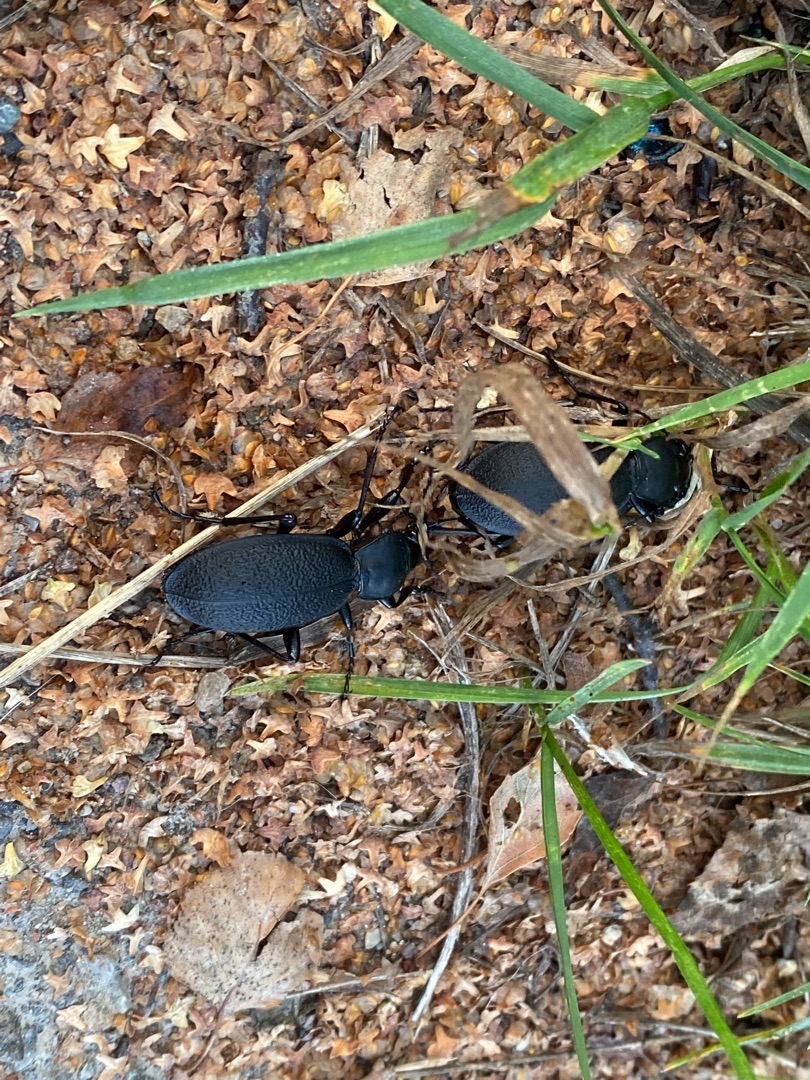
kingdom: Animalia
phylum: Arthropoda
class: Insecta
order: Coleoptera
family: Carabidae
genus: Carabus
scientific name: Carabus coriaceus
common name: Læderløber
